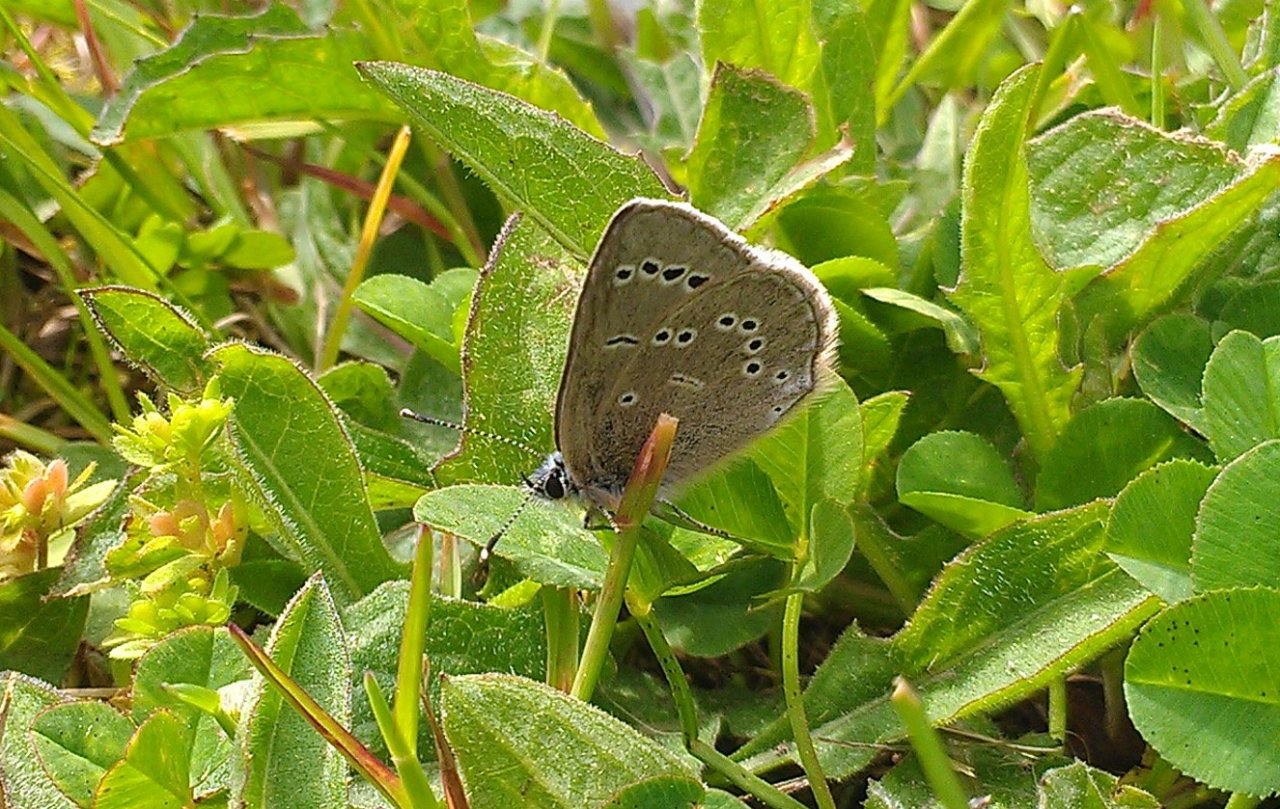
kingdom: Animalia
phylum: Arthropoda
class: Insecta
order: Lepidoptera
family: Lycaenidae
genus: Glaucopsyche
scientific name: Glaucopsyche lygdamus
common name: Silvery Blue
